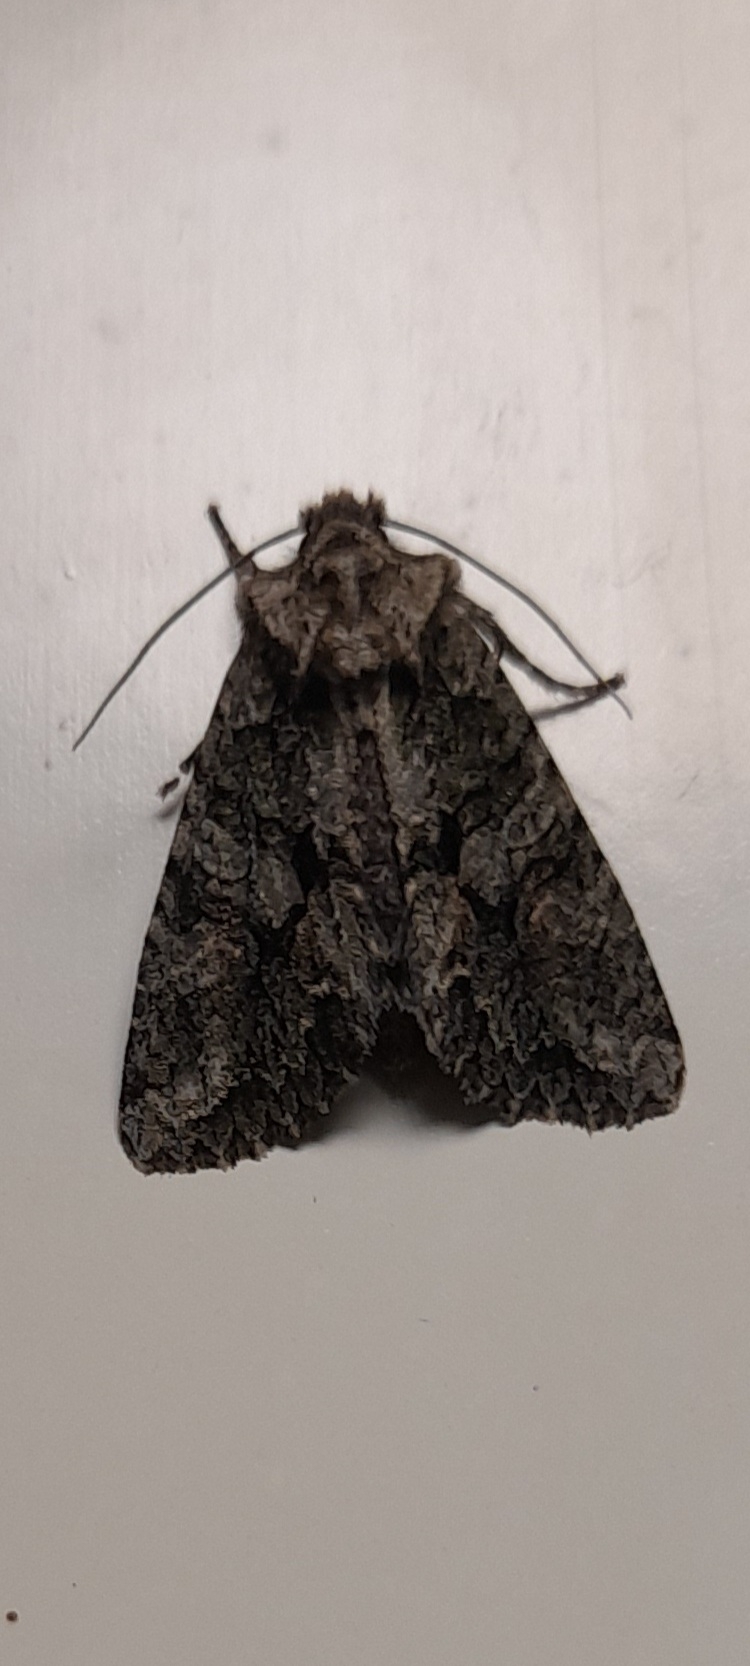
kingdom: Animalia
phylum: Arthropoda
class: Insecta
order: Lepidoptera
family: Noctuidae
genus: Dryobotodes
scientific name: Dryobotodes eremita
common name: Eremitugle
